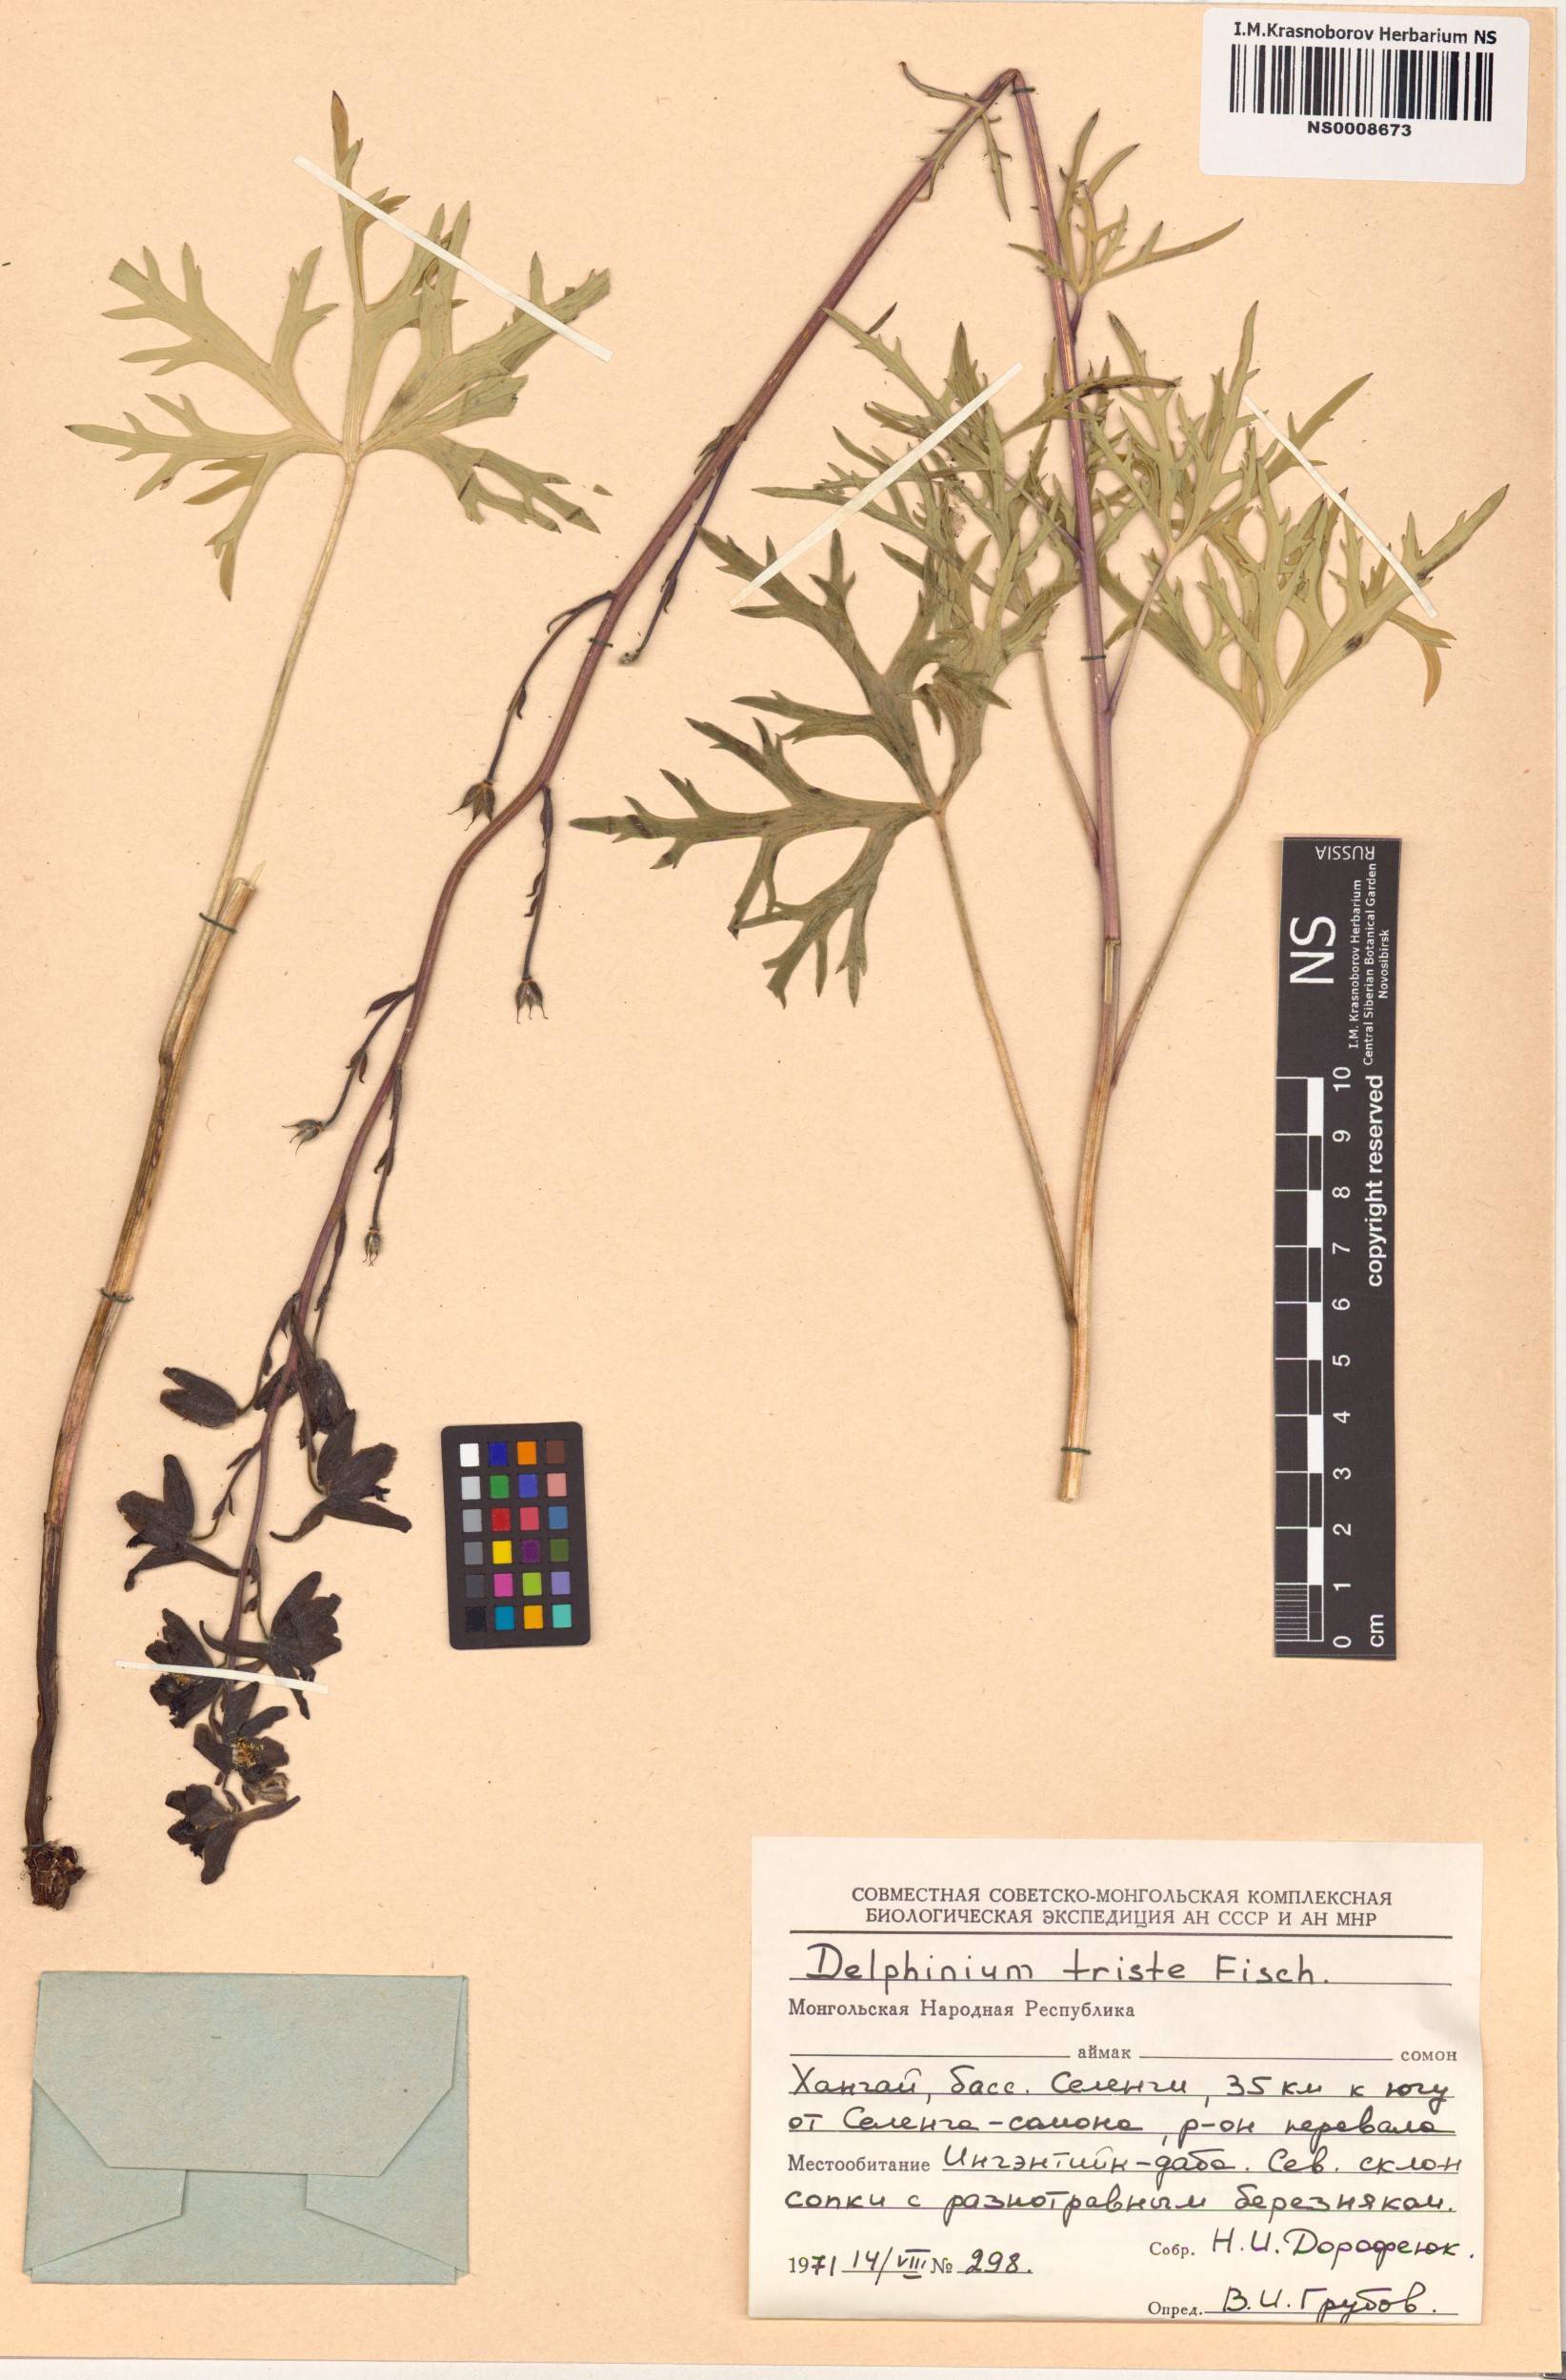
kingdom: Plantae
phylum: Tracheophyta
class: Magnoliopsida
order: Ranunculales
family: Ranunculaceae
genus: Delphinium
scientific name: Delphinium triste
